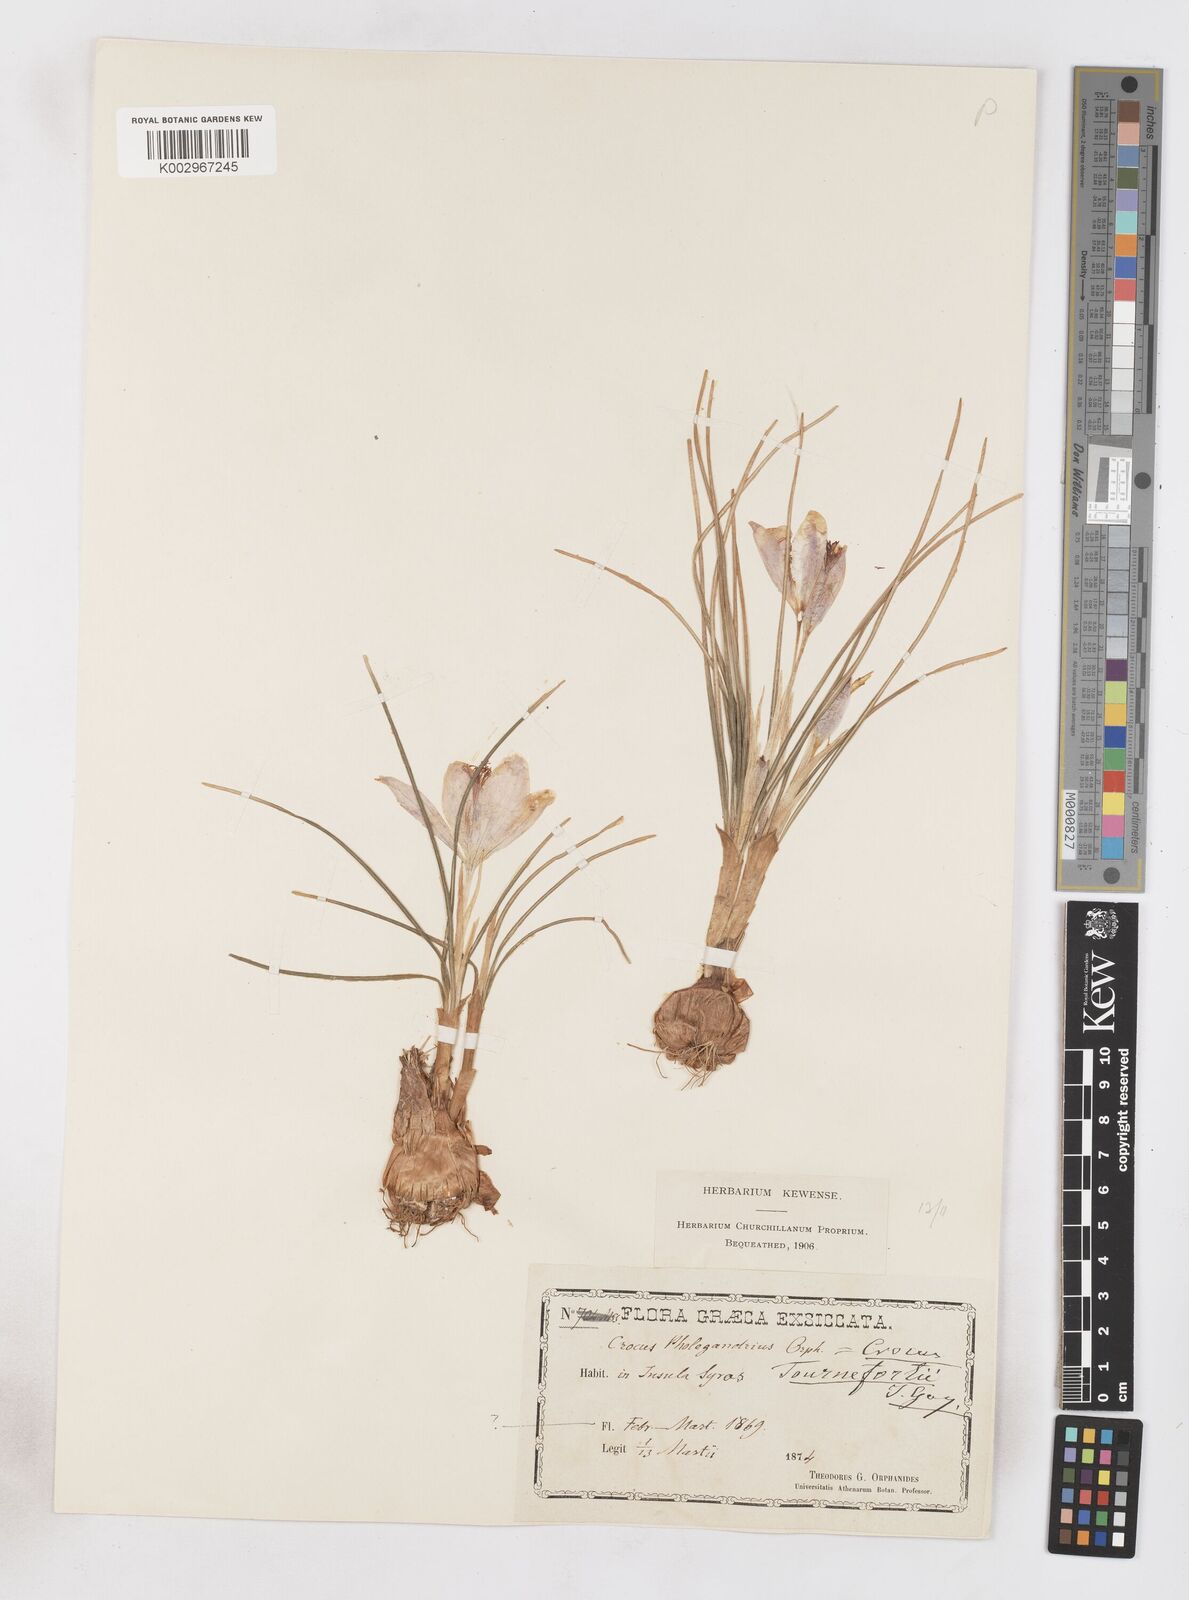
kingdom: Plantae
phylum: Tracheophyta
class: Liliopsida
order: Asparagales
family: Iridaceae
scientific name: Iridaceae
